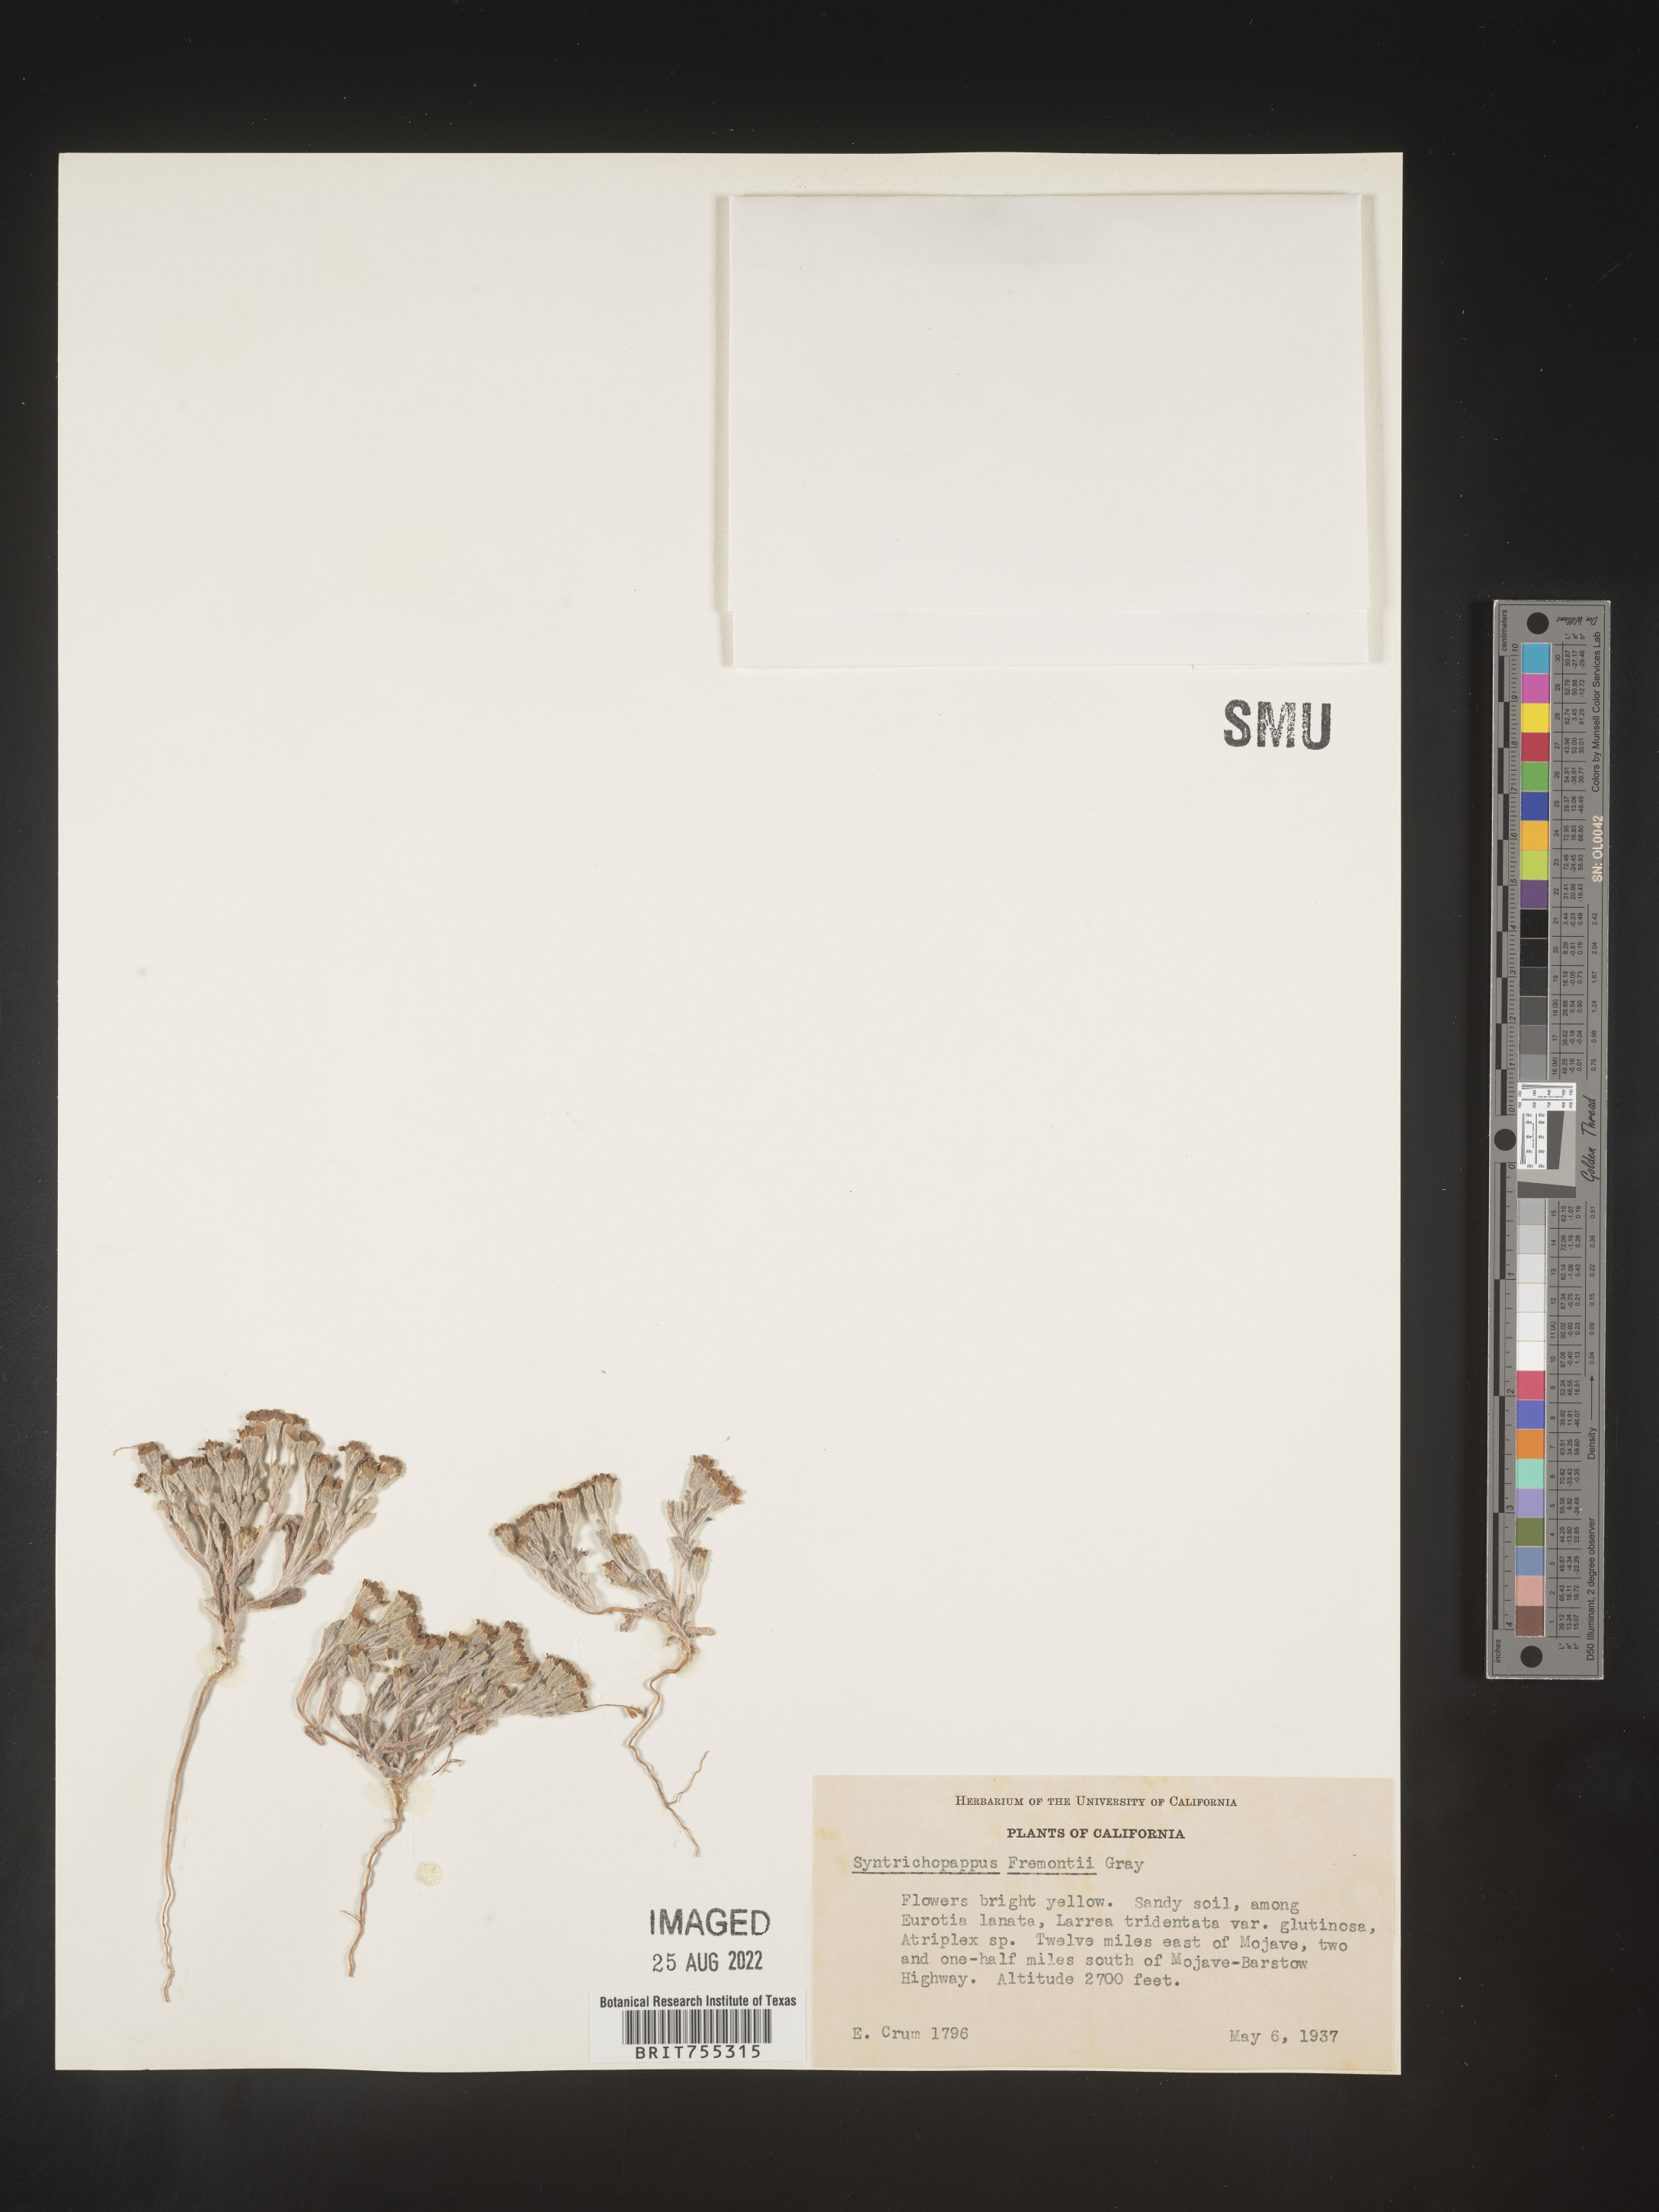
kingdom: Plantae
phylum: Tracheophyta
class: Magnoliopsida
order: Asterales
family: Asteraceae
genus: Syntrichopappus
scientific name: Syntrichopappus
